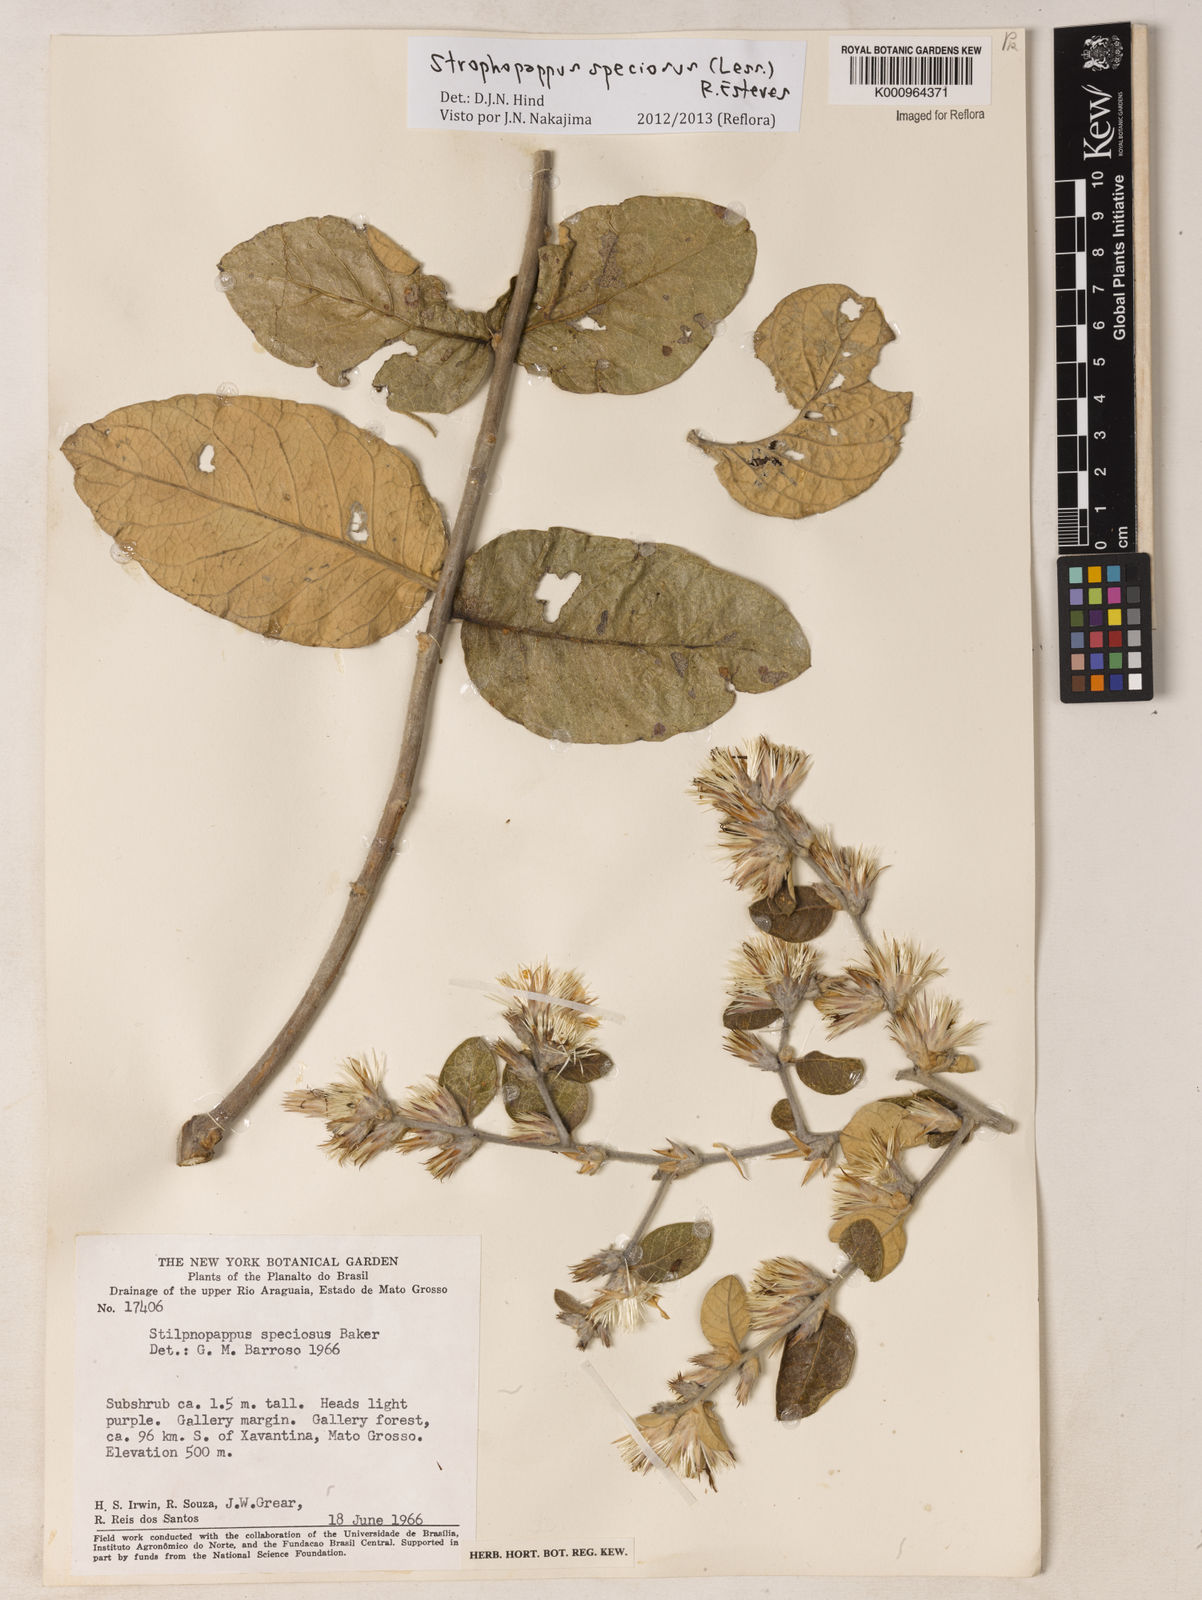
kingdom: Plantae
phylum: Tracheophyta
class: Magnoliopsida
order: Asterales
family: Asteraceae
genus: Stilpnopappus
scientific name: Stilpnopappus speciosus
